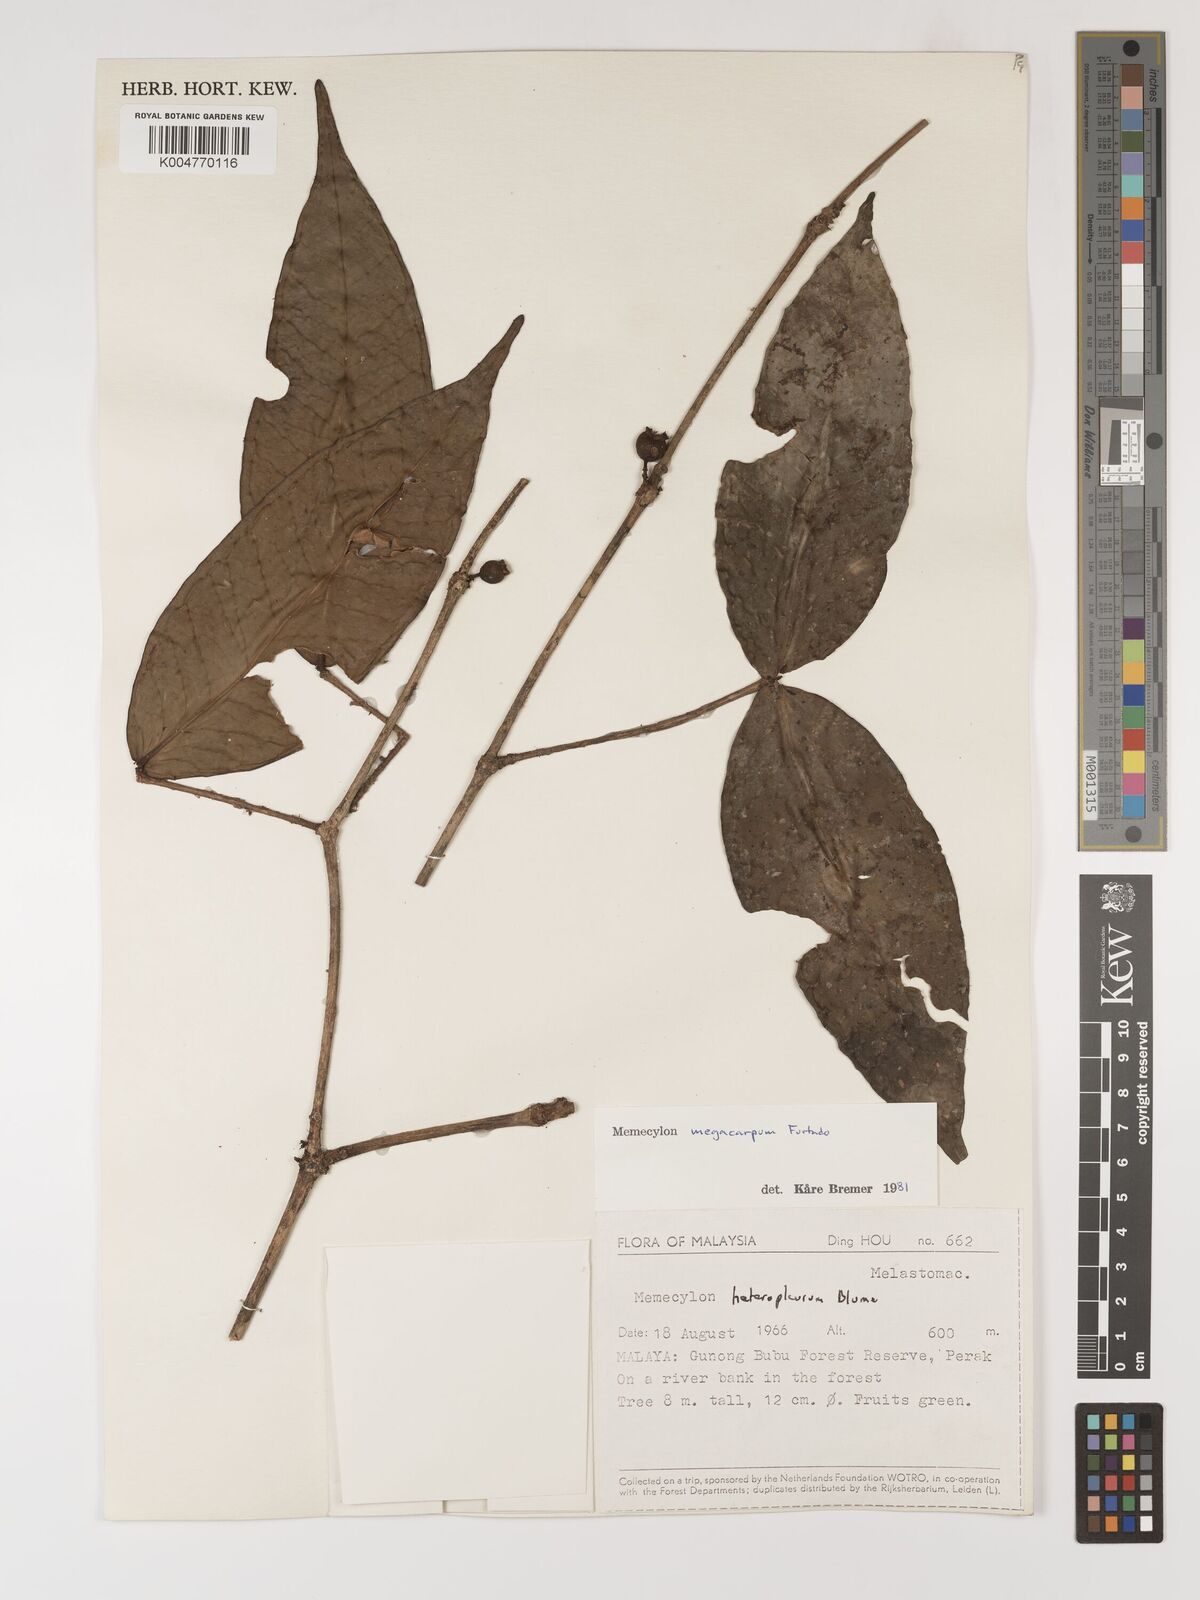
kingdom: Plantae
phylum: Tracheophyta
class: Magnoliopsida
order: Myrtales
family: Melastomataceae
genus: Memecylon
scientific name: Memecylon megacarpum
